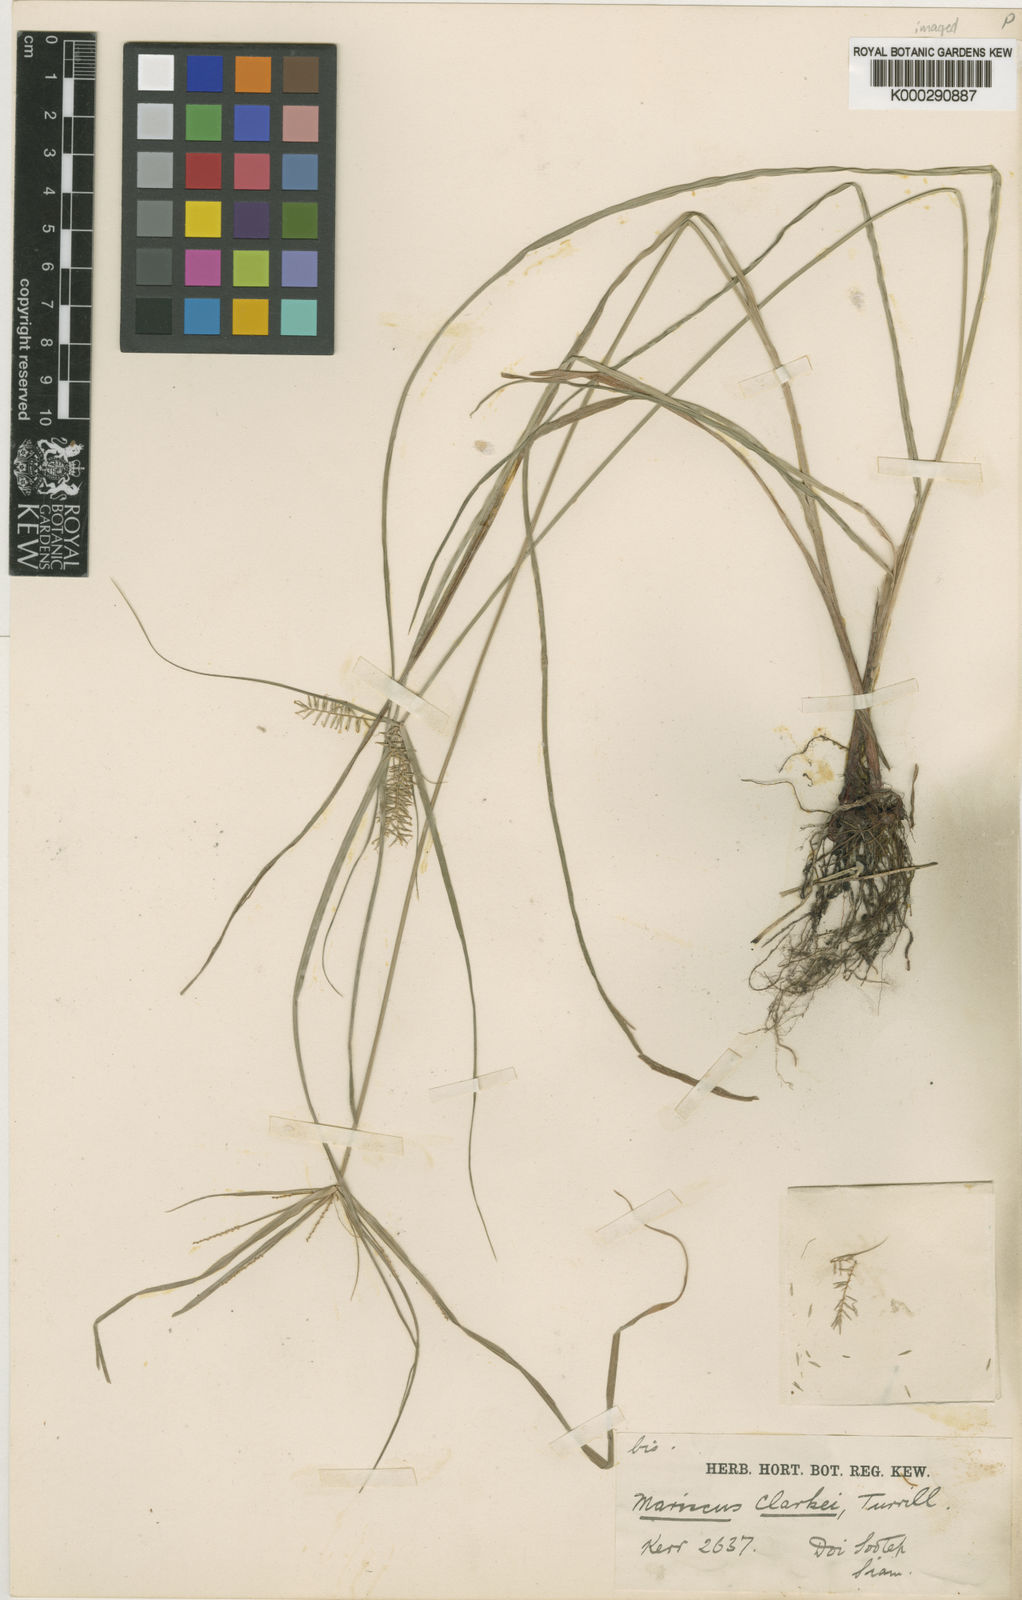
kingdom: Plantae
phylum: Tracheophyta
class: Liliopsida
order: Poales
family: Cyperaceae
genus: Cyperus
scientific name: Cyperus cyperoides
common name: Pacific island flat sedge
